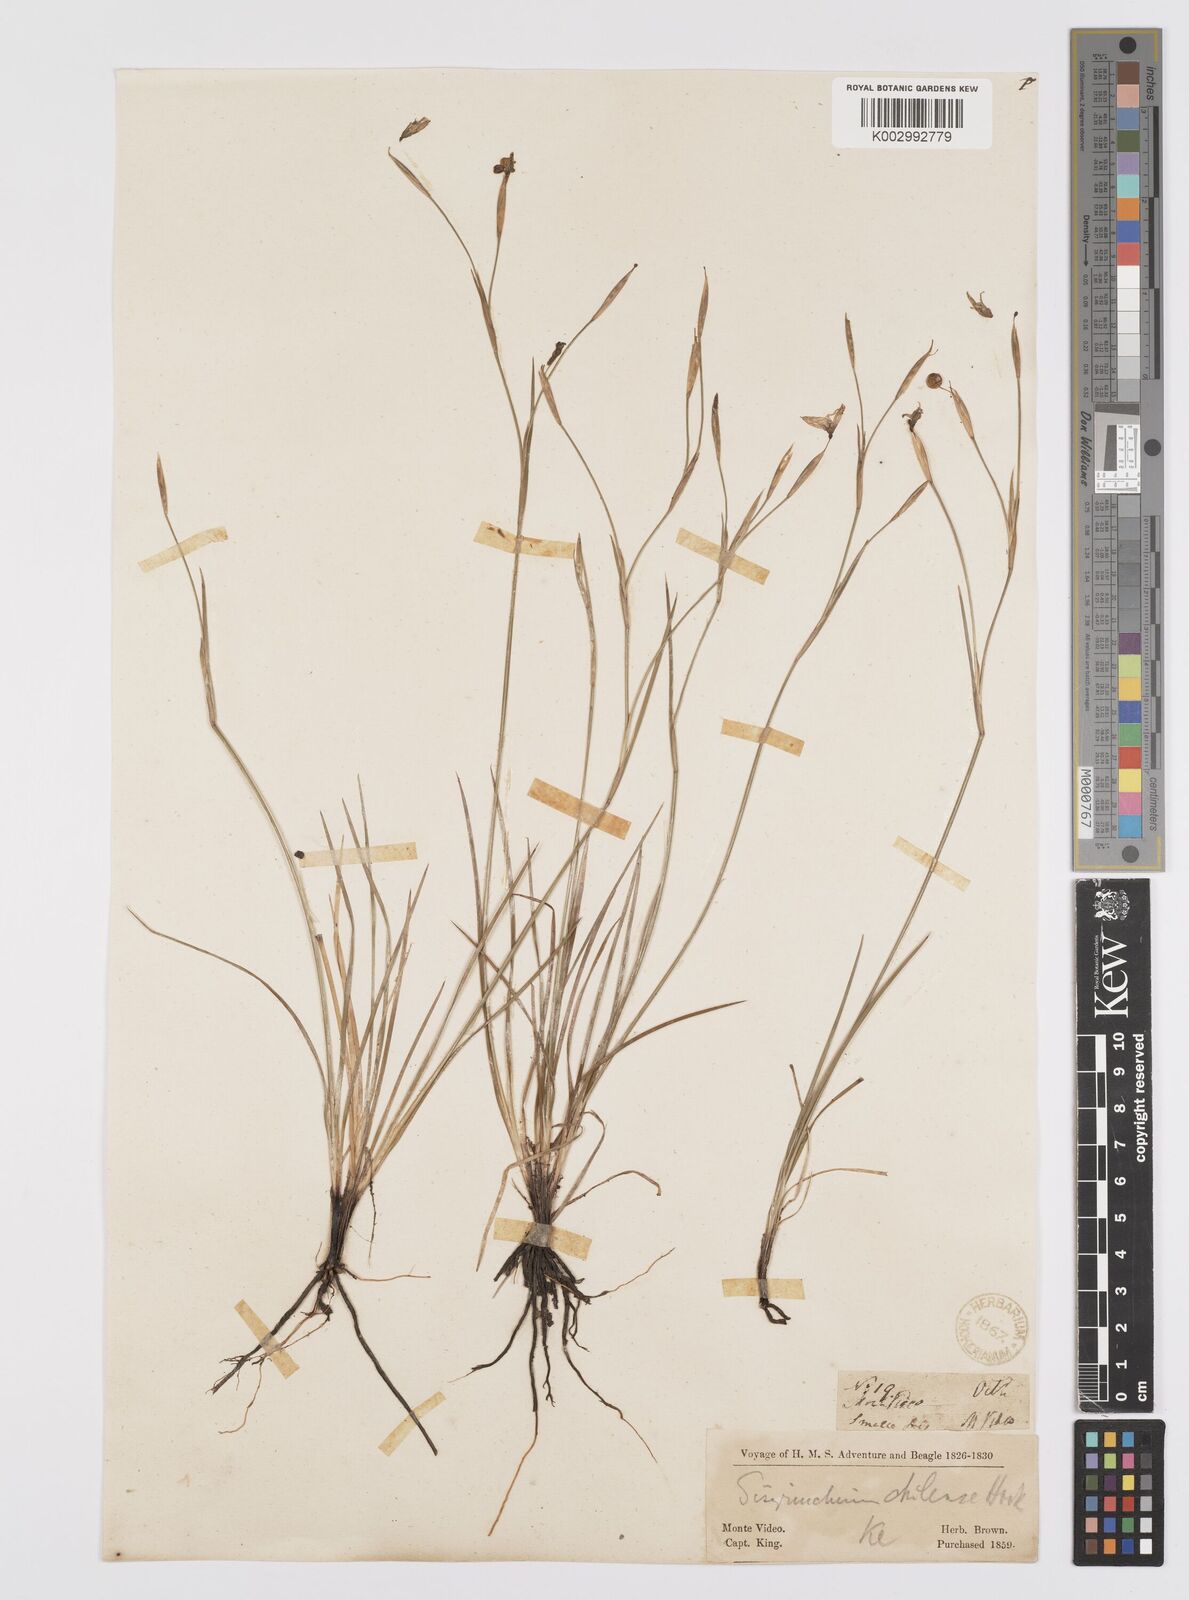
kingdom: Plantae
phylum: Tracheophyta
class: Liliopsida
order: Asparagales
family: Iridaceae
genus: Sisyrinchium
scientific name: Sisyrinchium chilense
